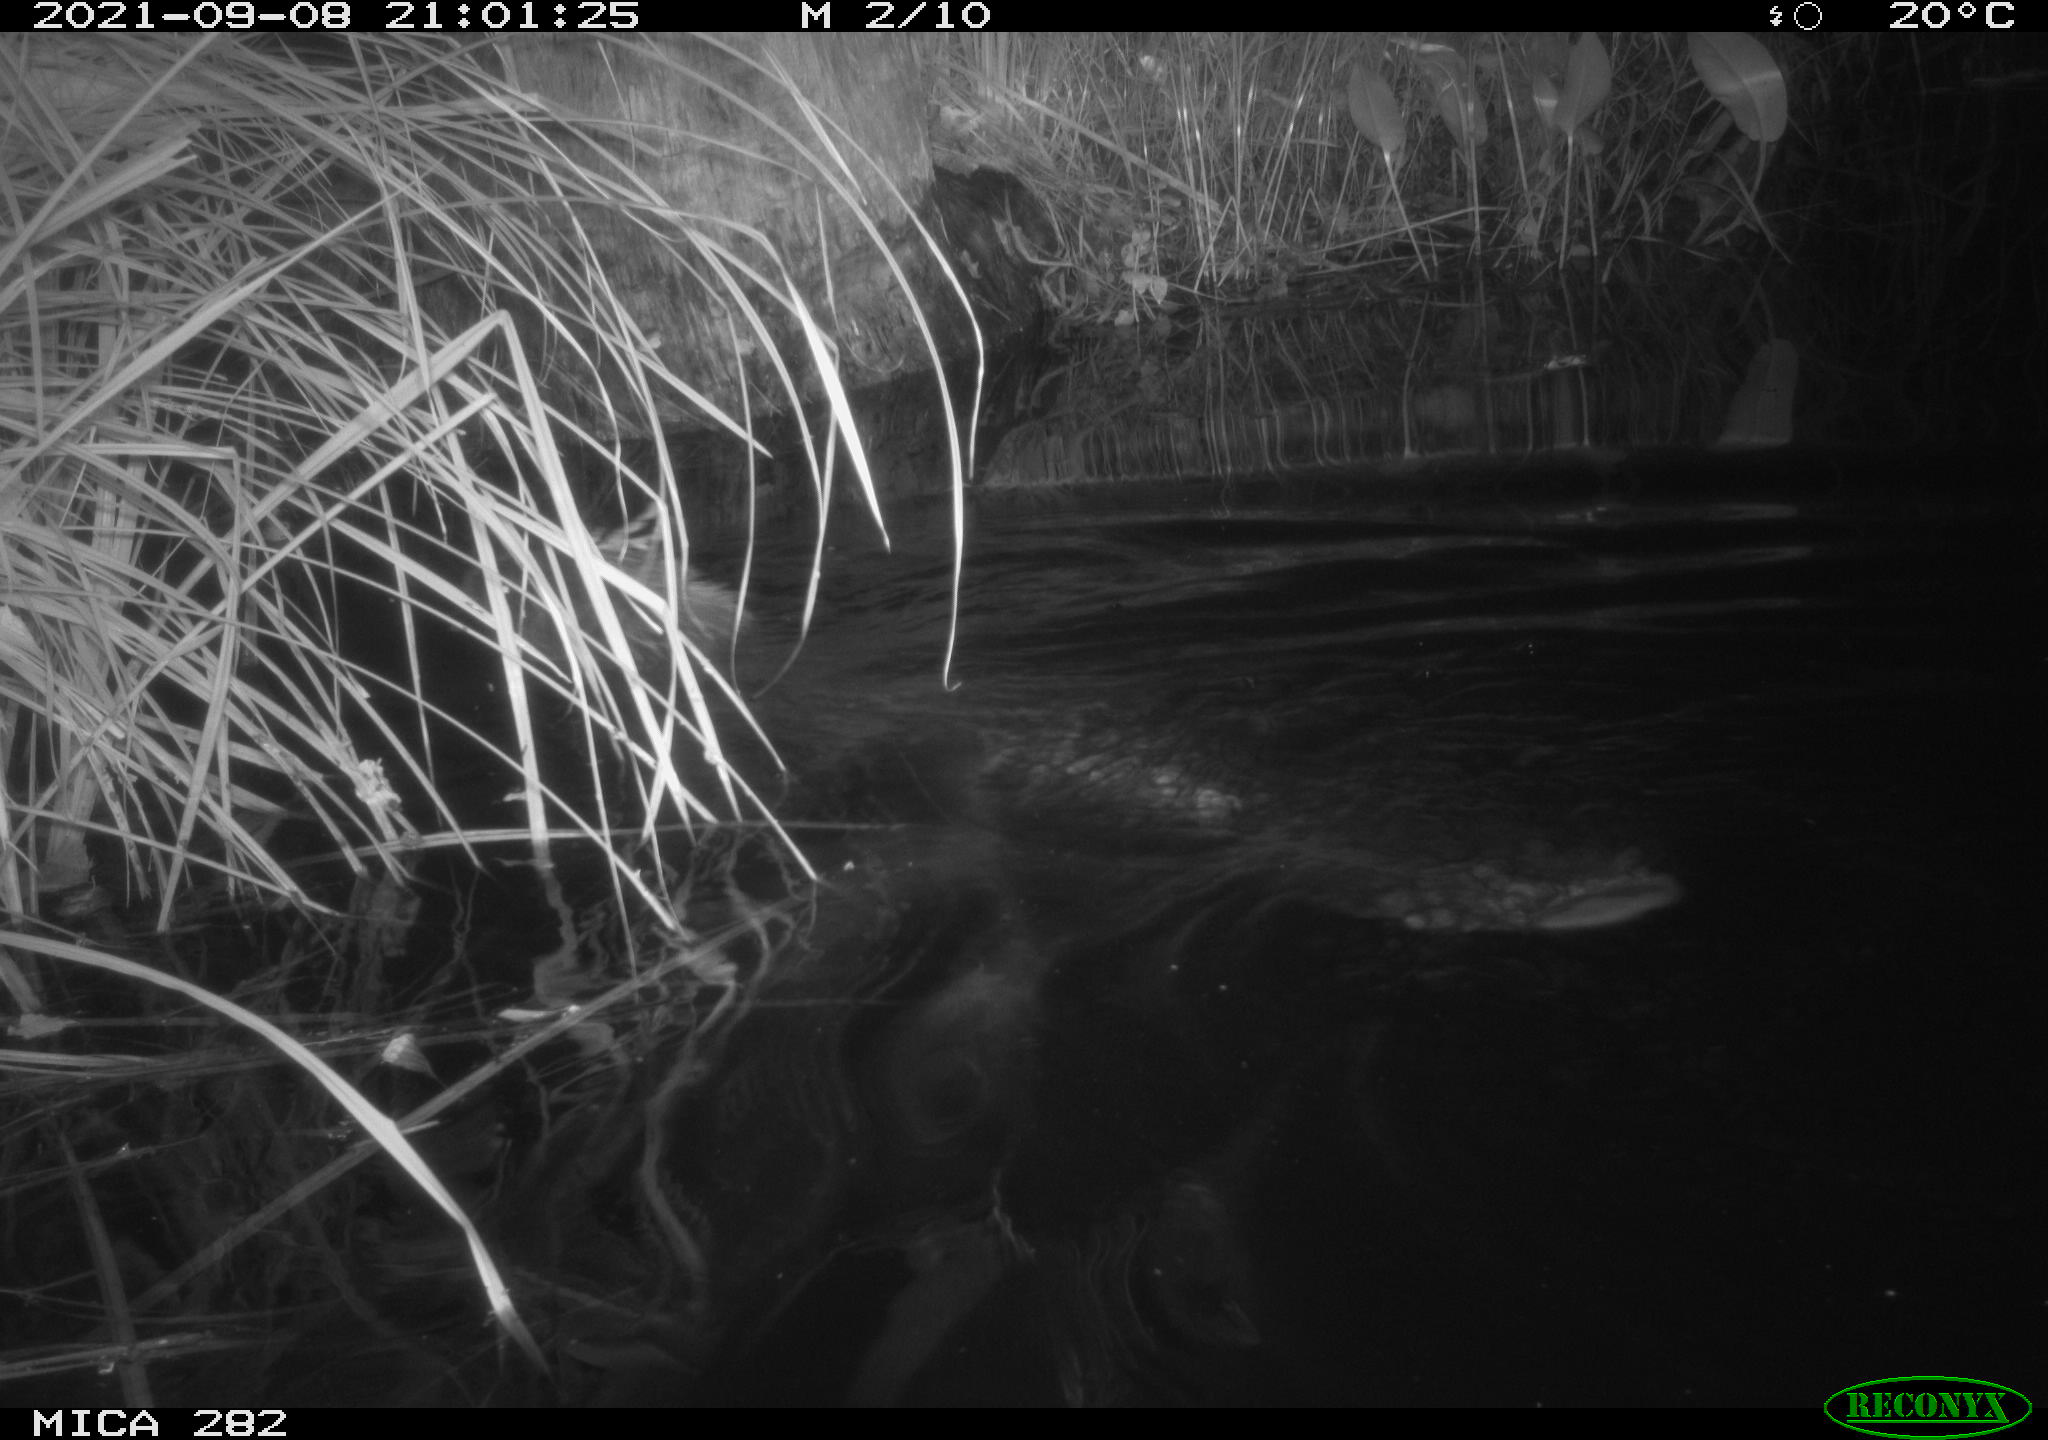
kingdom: Animalia
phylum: Chordata
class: Mammalia
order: Rodentia
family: Castoridae
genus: Castor
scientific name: Castor fiber
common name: Eurasian beaver
